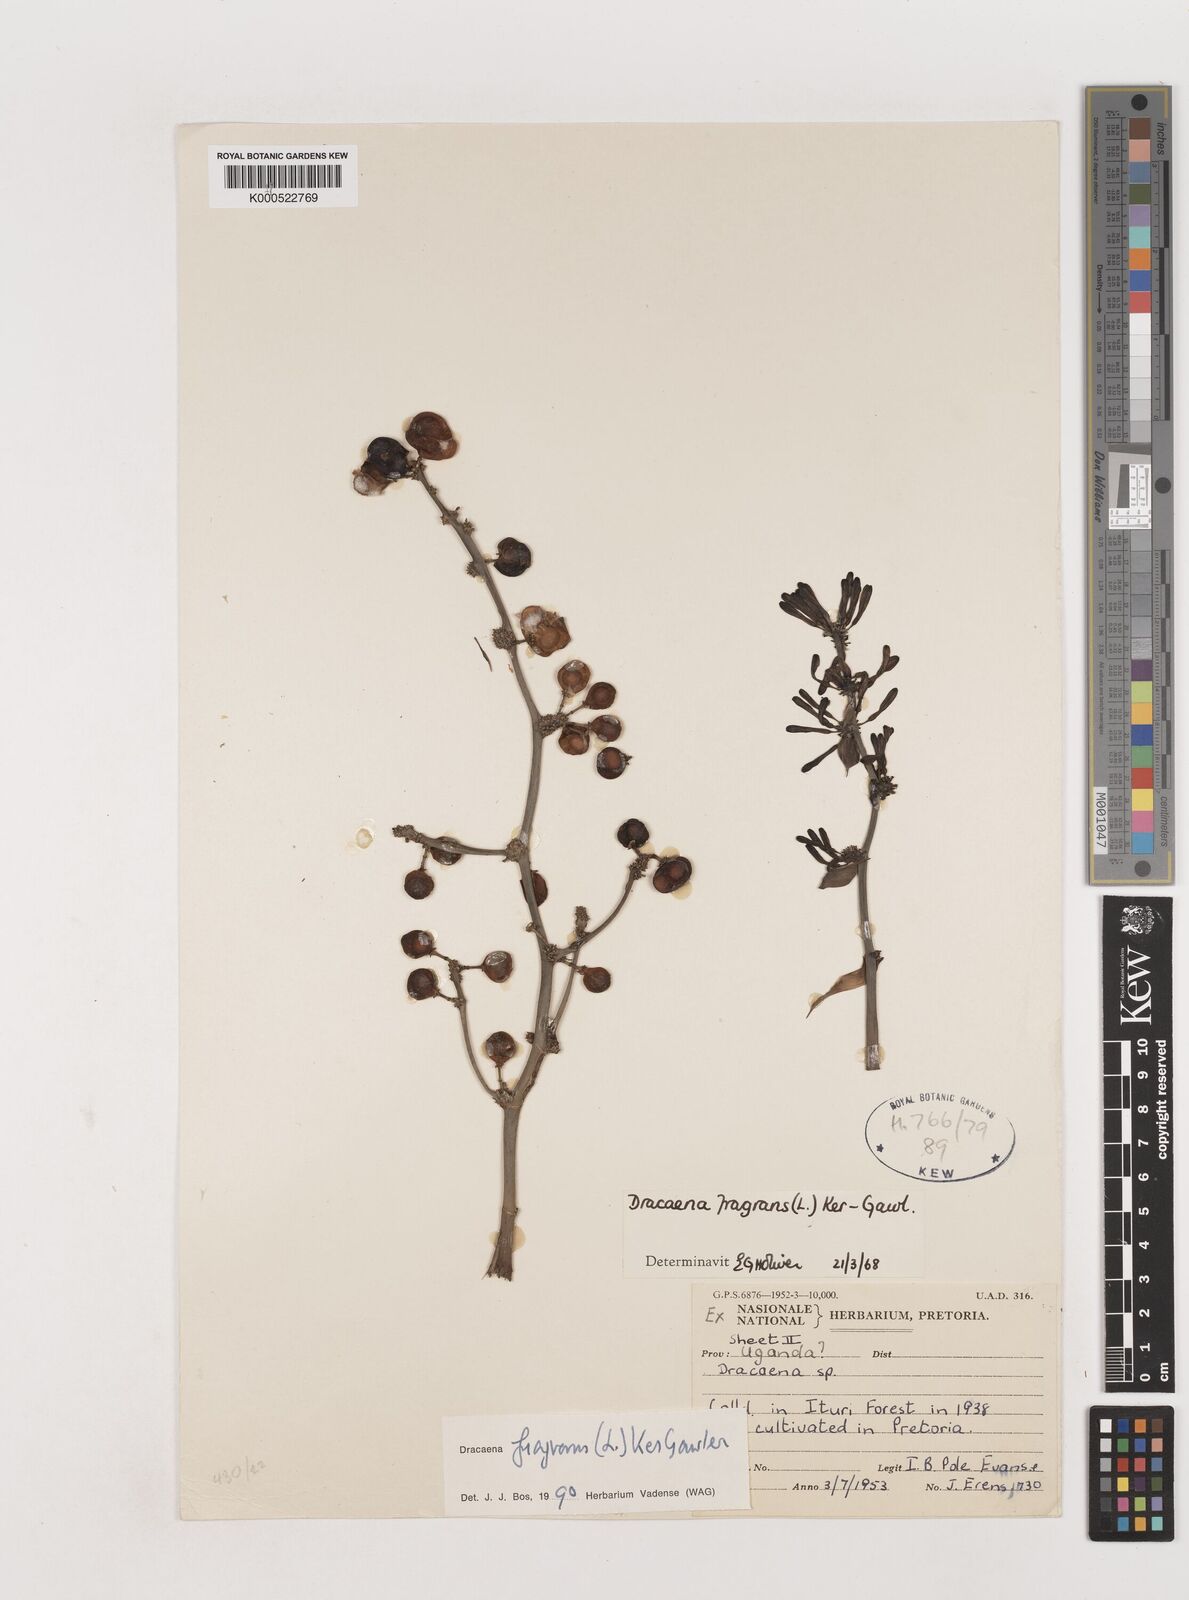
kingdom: Plantae
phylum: Tracheophyta
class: Liliopsida
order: Asparagales
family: Asparagaceae
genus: Dracaena
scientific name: Dracaena fragrans
